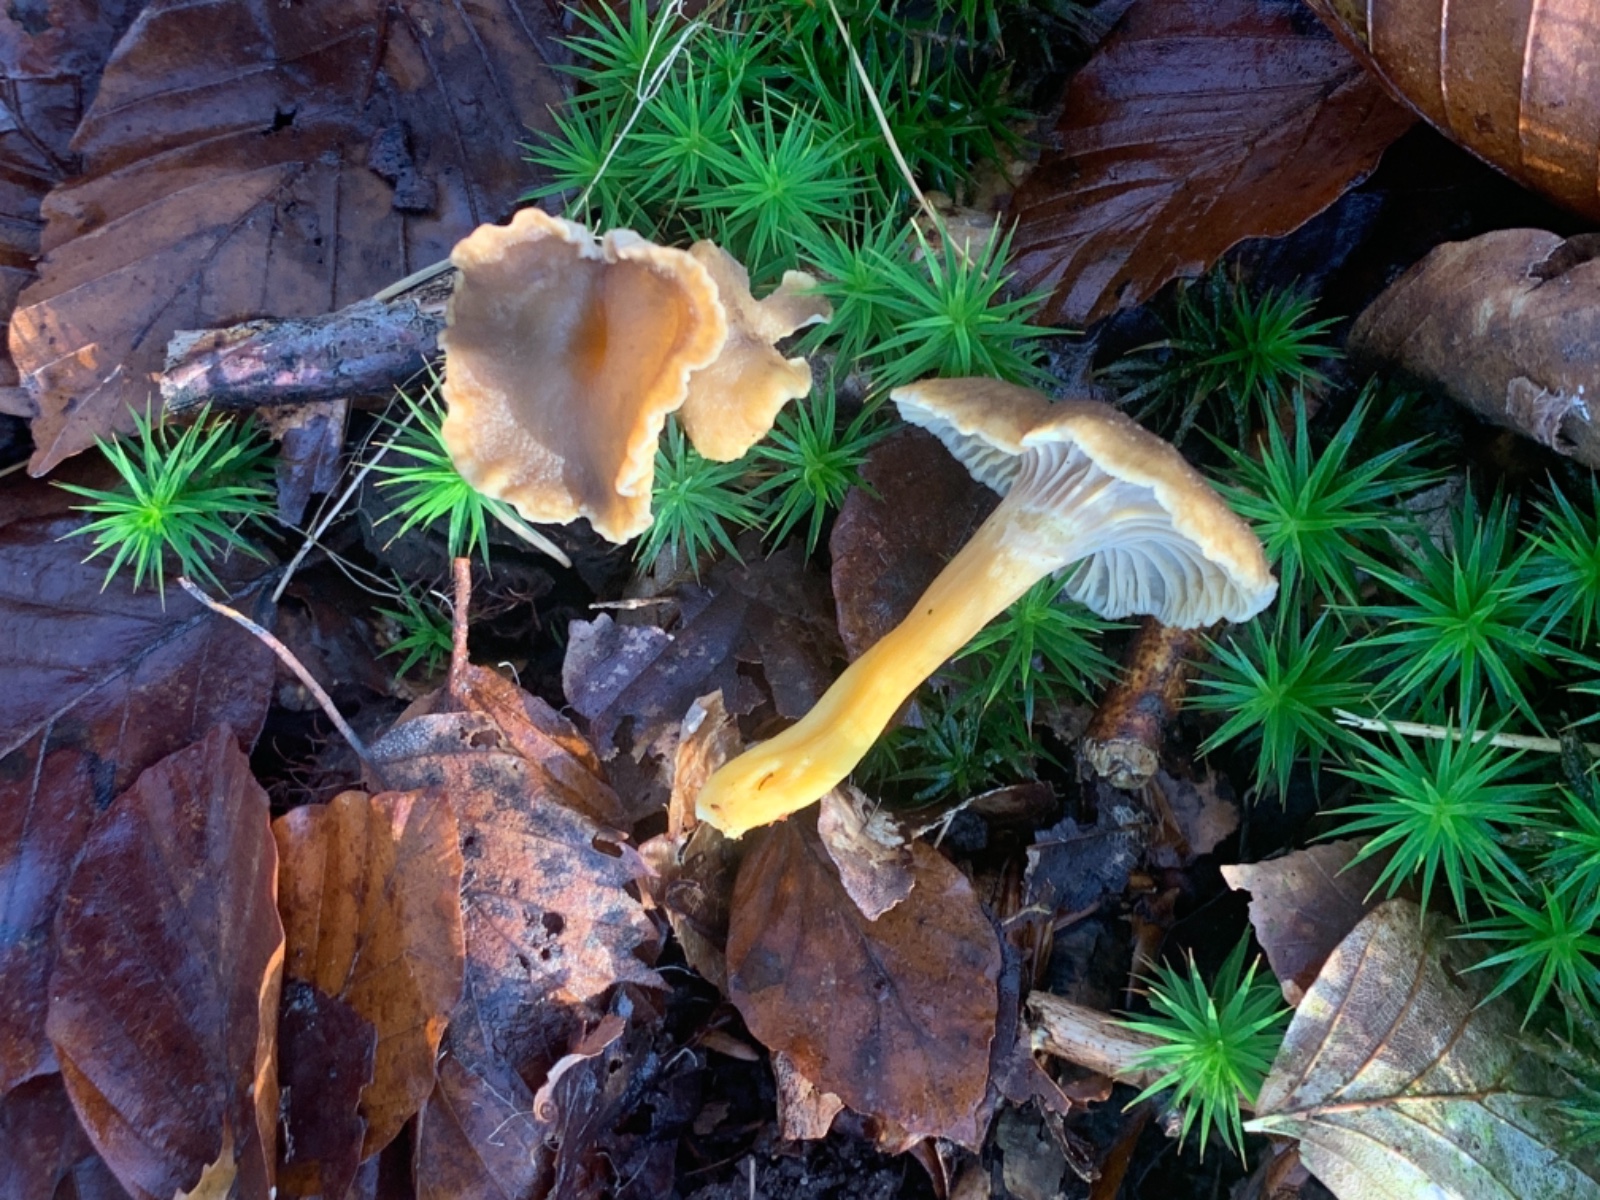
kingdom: Fungi
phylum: Basidiomycota
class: Agaricomycetes
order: Cantharellales
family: Hydnaceae
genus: Craterellus
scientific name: Craterellus tubaeformis
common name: tragt-kantarel
